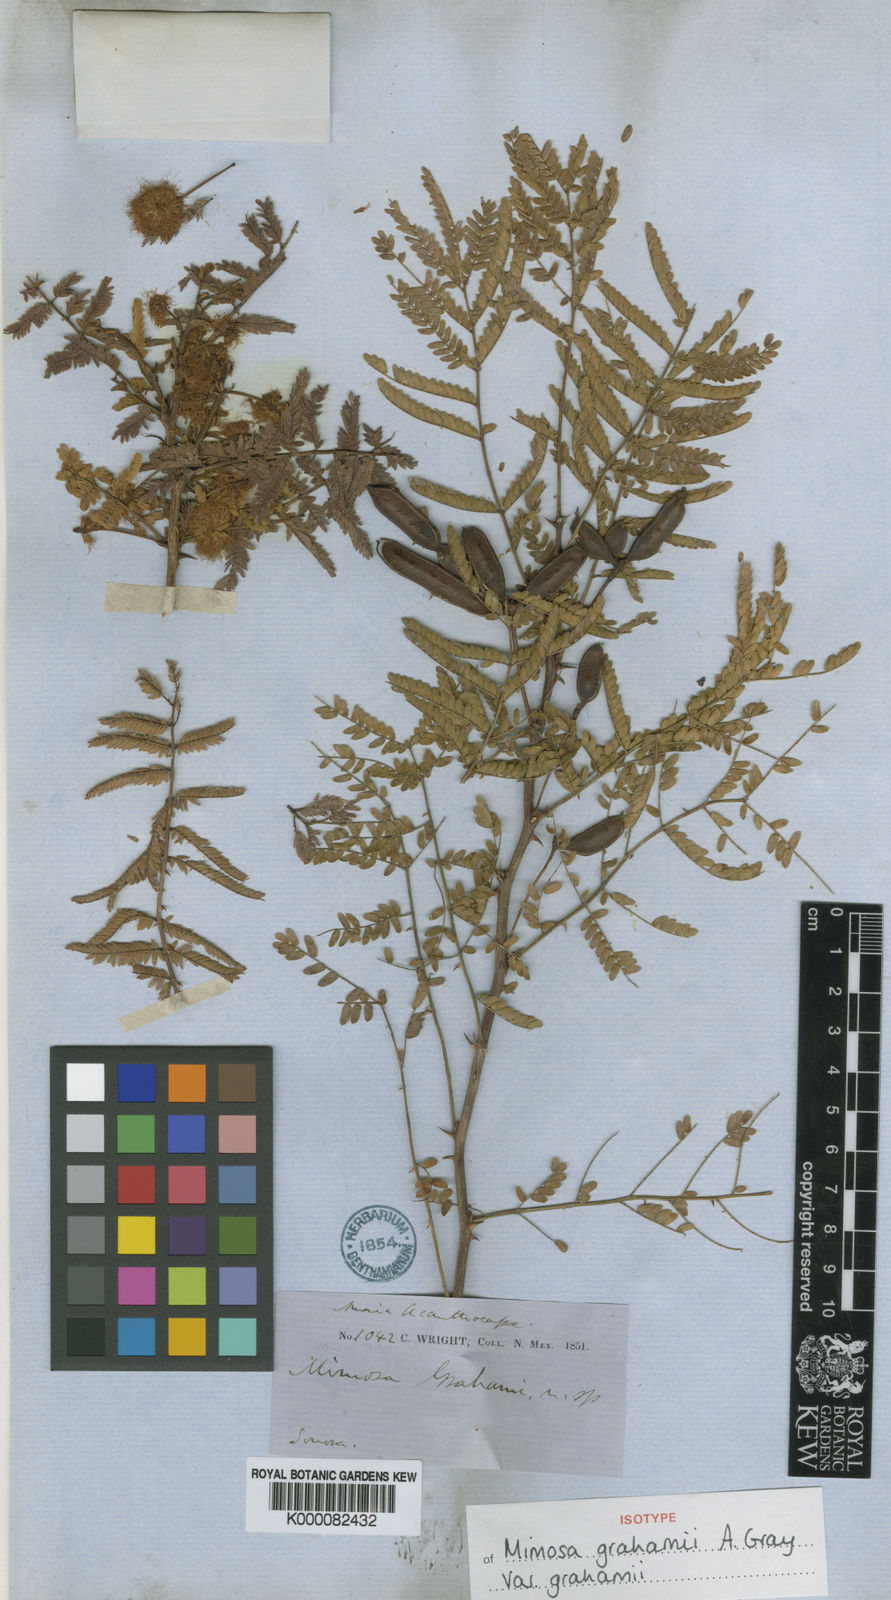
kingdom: Plantae
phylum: Tracheophyta
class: Magnoliopsida
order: Fabales
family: Fabaceae
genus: Mimosa
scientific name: Mimosa grahamii
